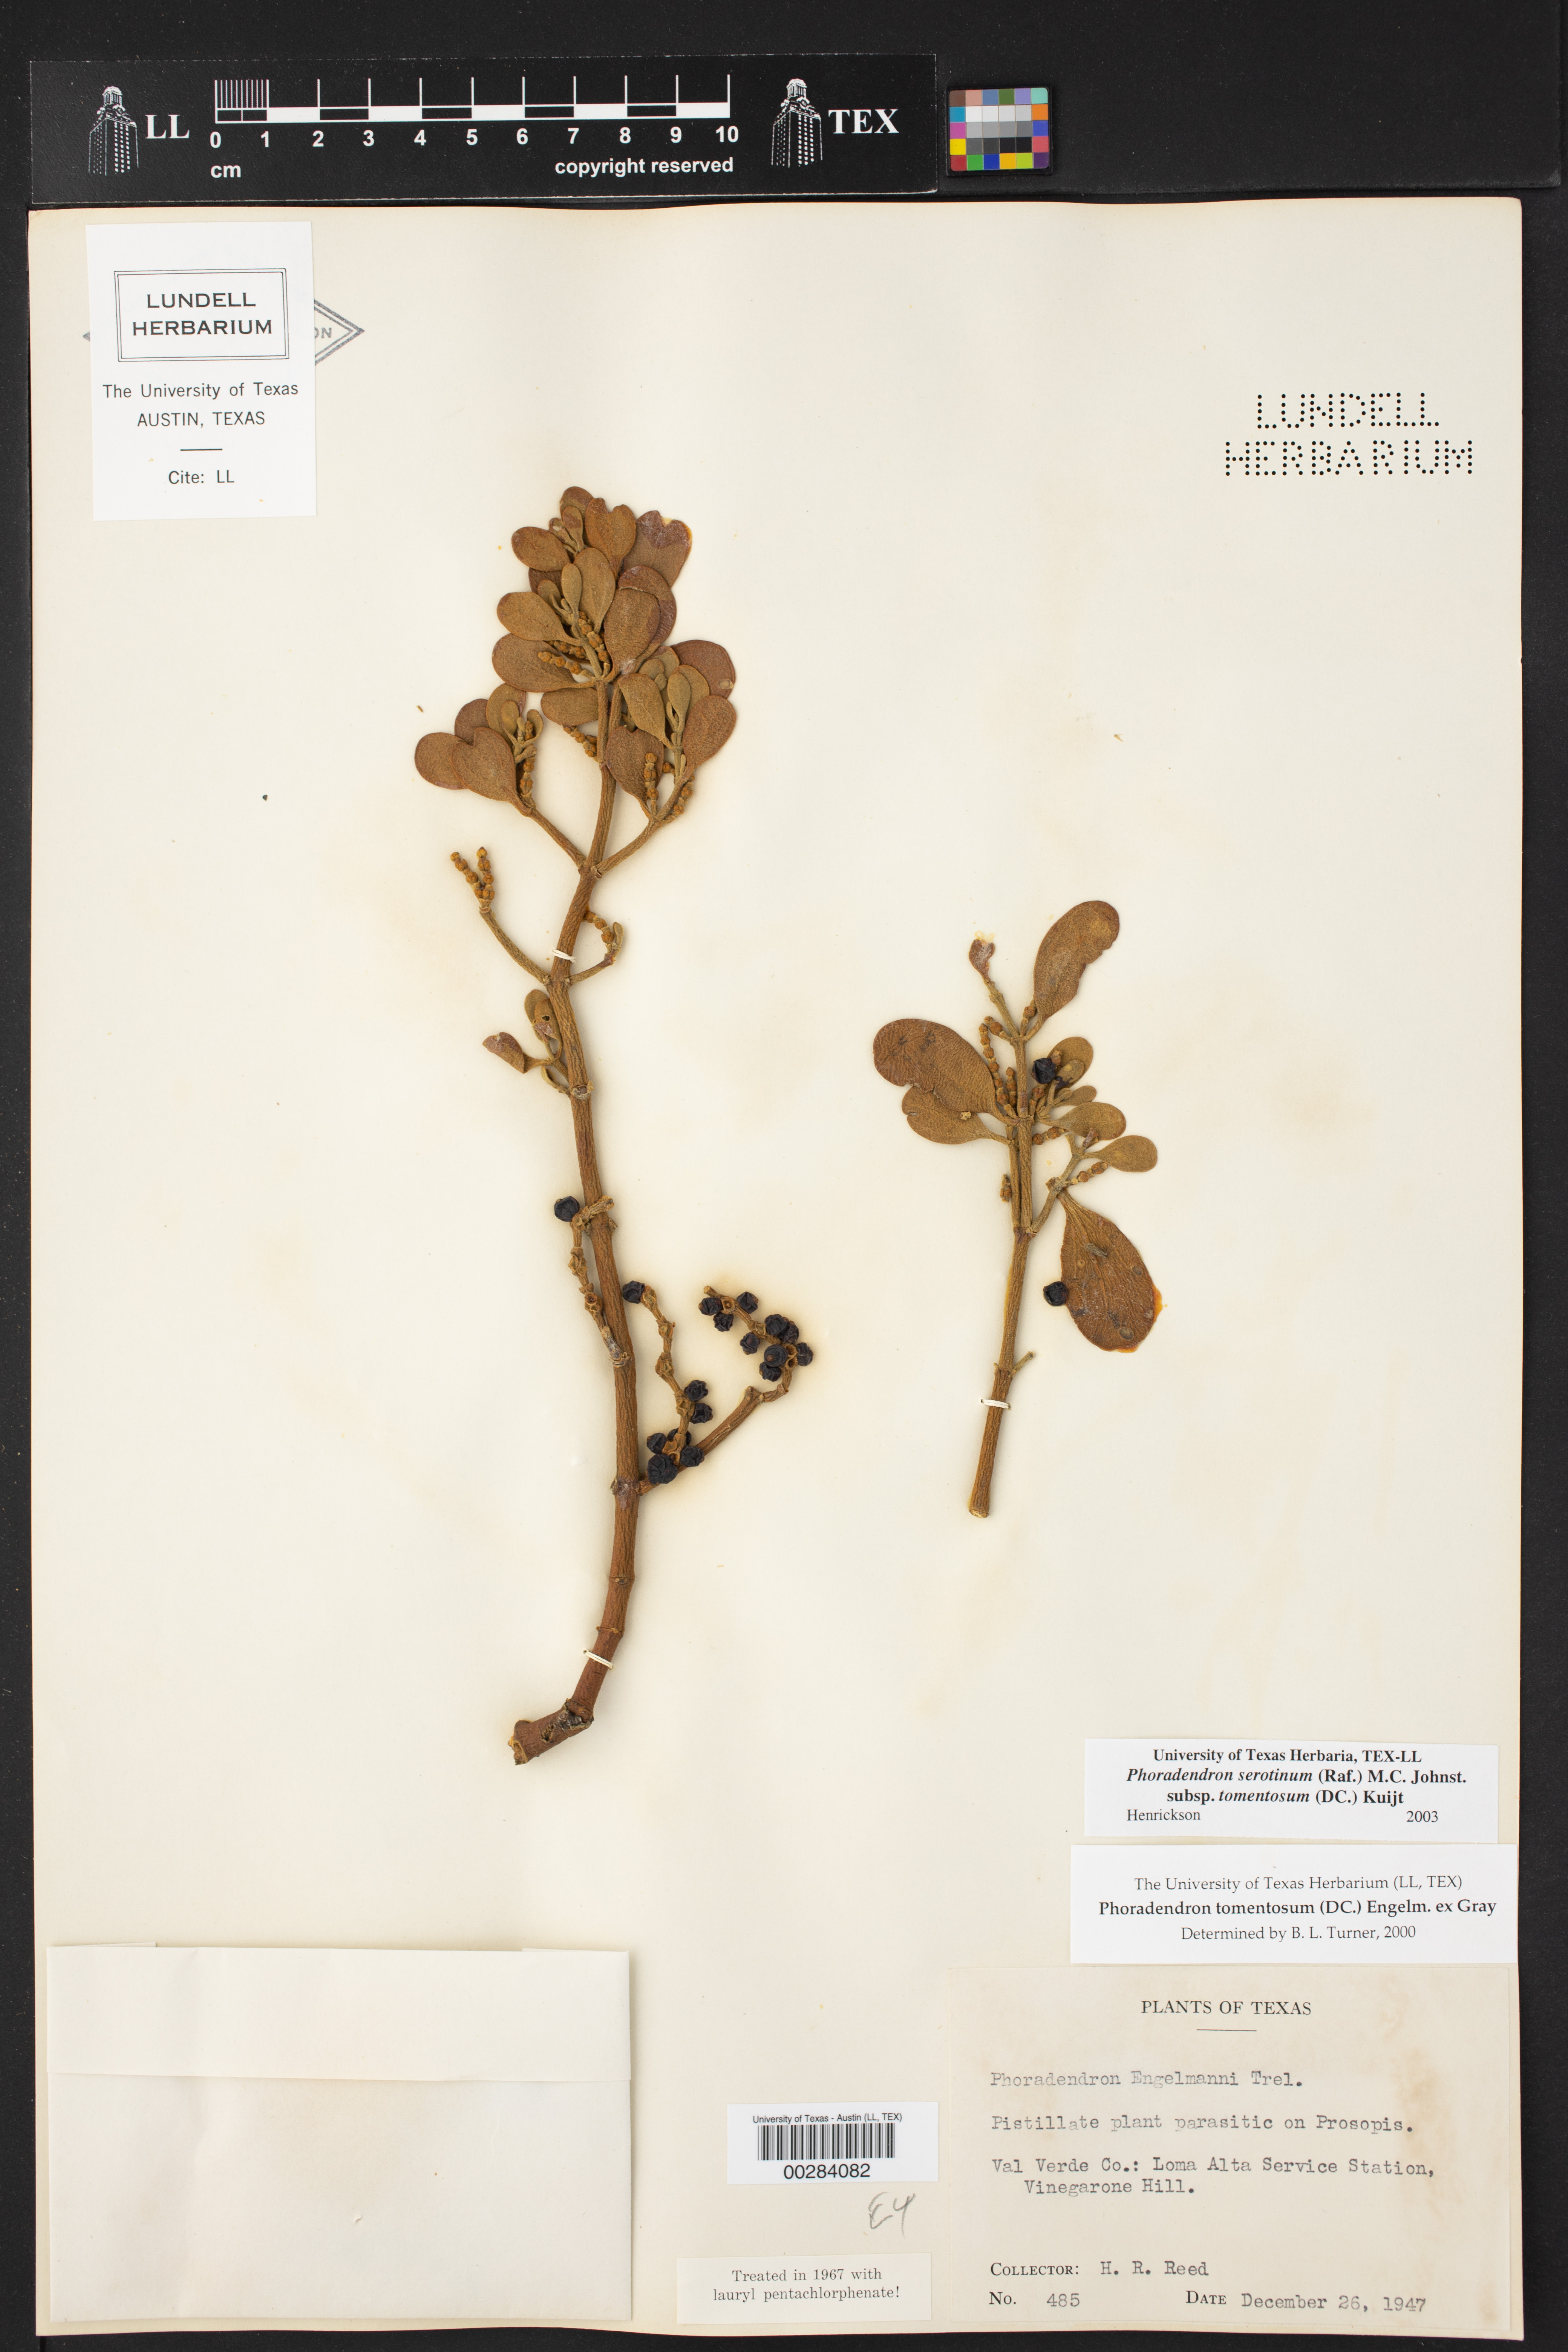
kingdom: Plantae
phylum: Tracheophyta
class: Magnoliopsida
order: Santalales
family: Viscaceae
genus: Phoradendron
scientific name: Phoradendron leucarpum
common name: Pacific mistletoe
